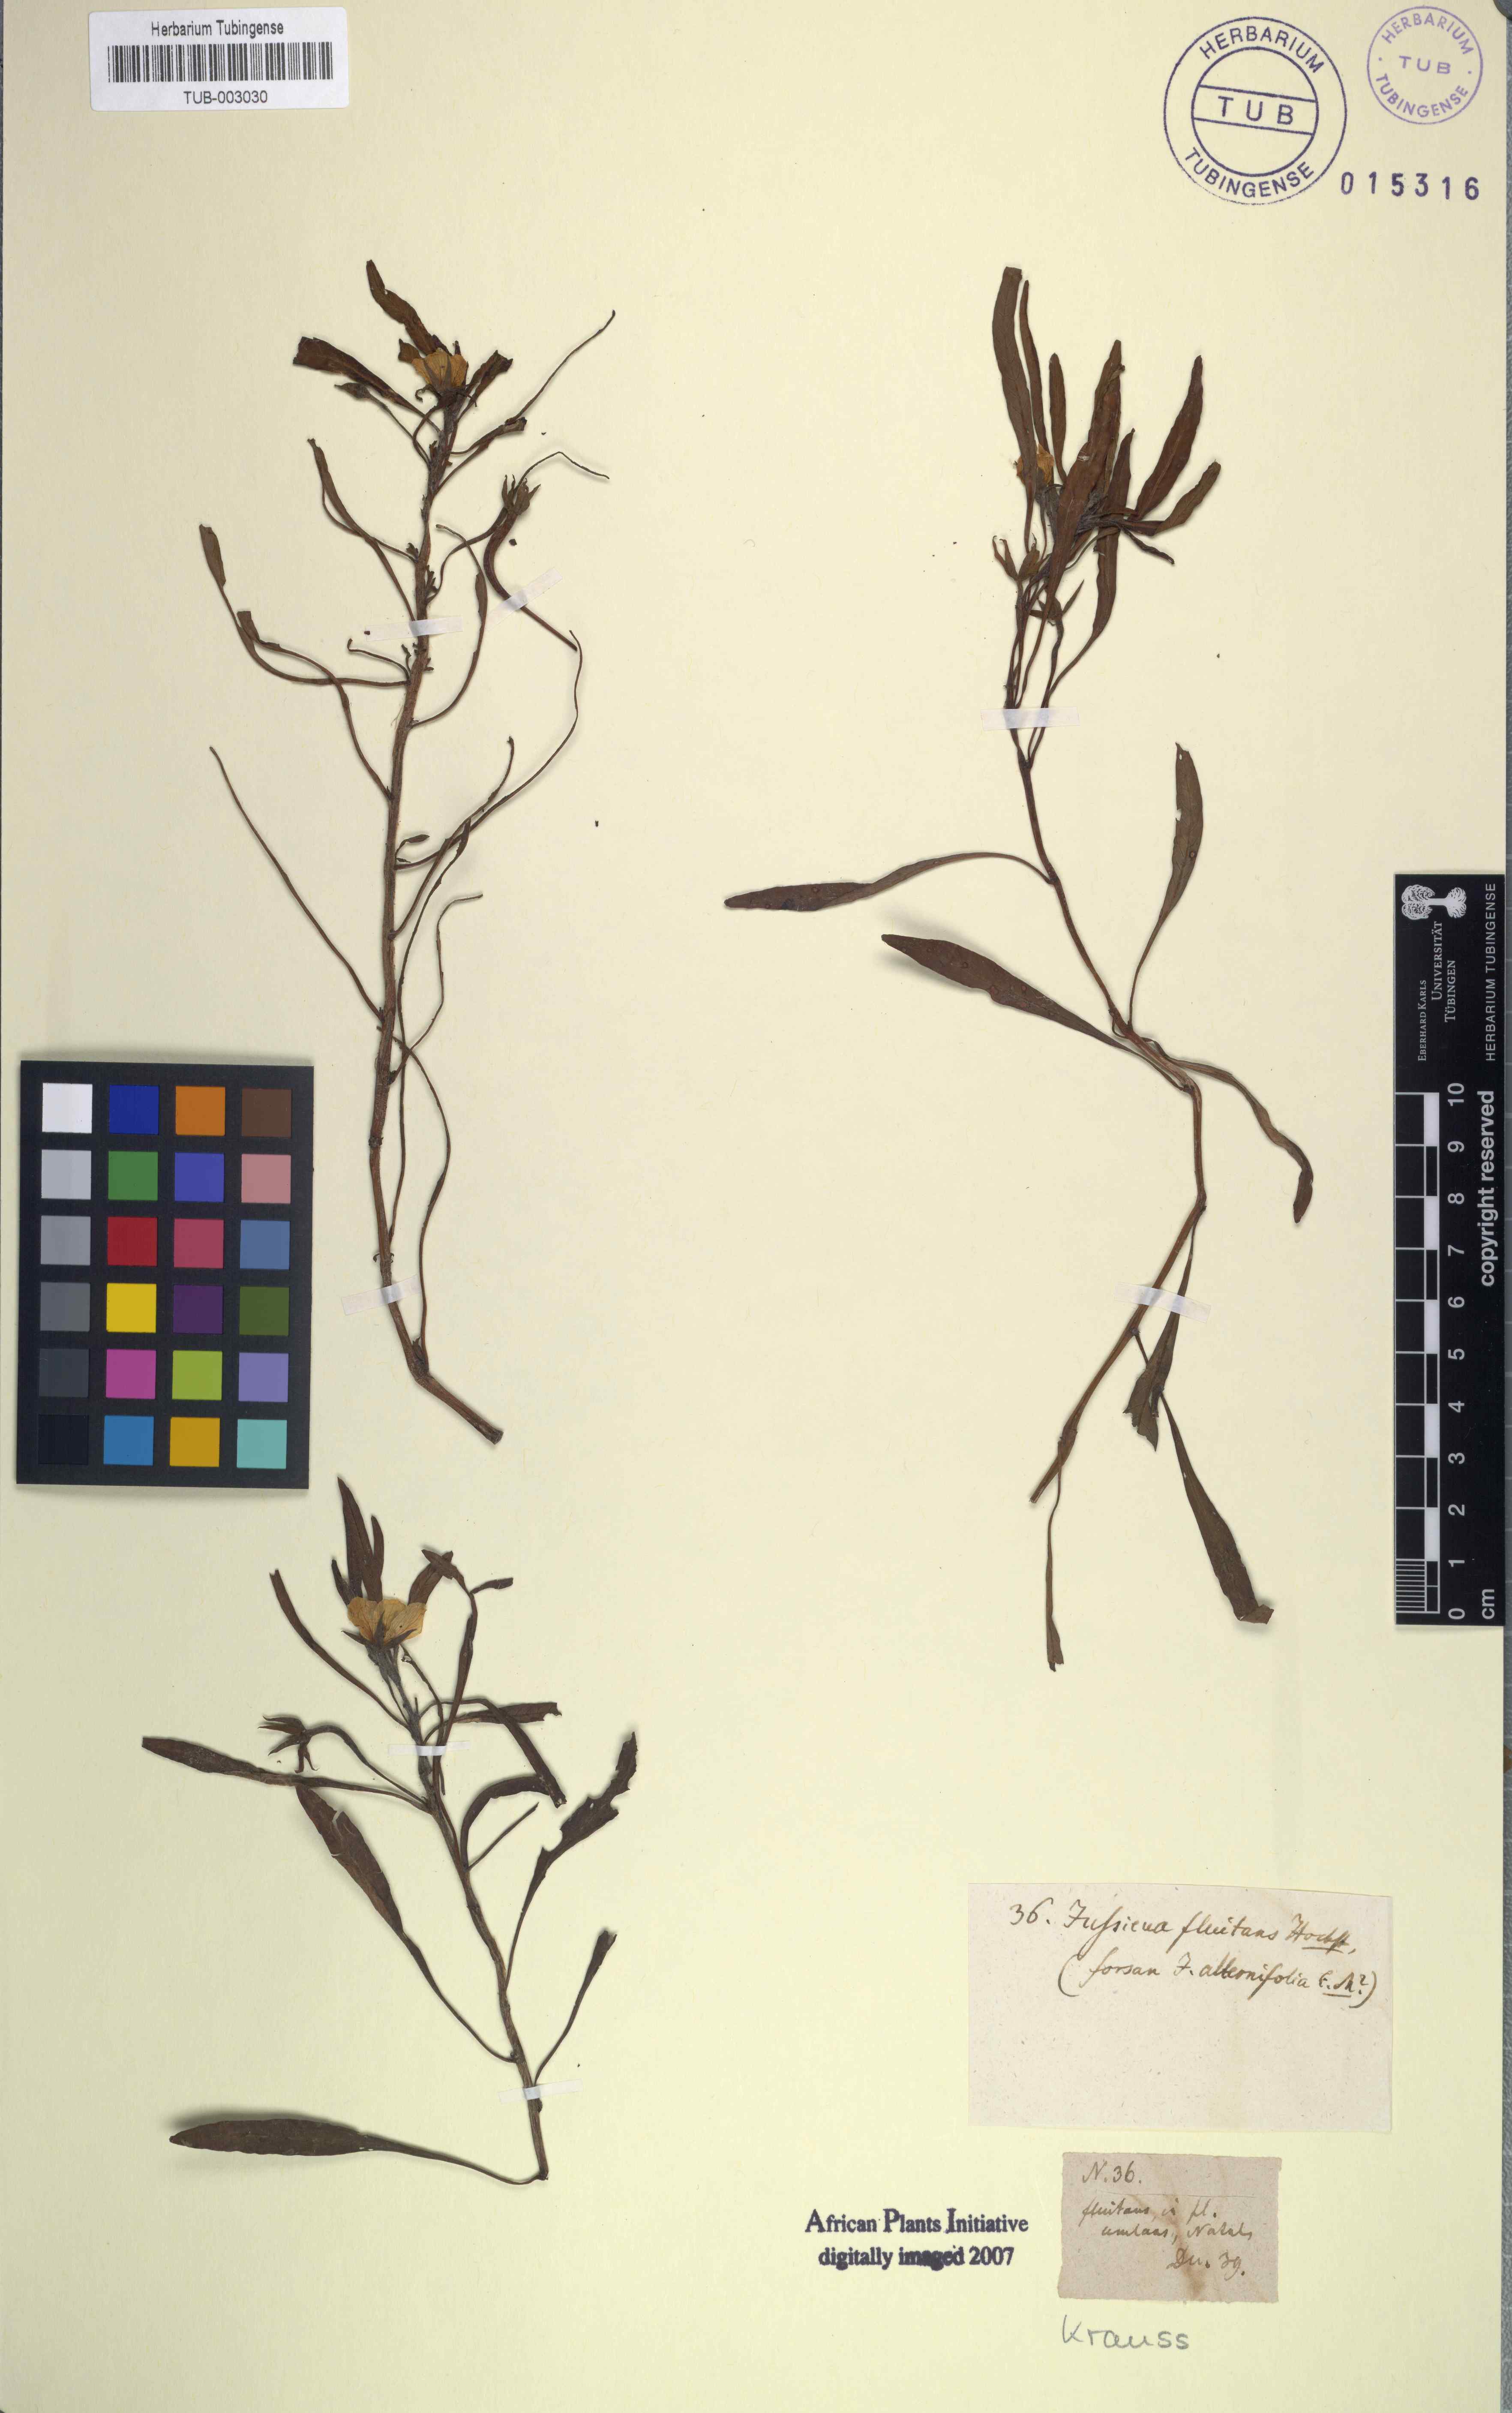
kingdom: Plantae
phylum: Tracheophyta
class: Magnoliopsida
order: Myrtales
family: Onagraceae
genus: Ludwigia
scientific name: Ludwigia adscendens
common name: Creeping water primrose
